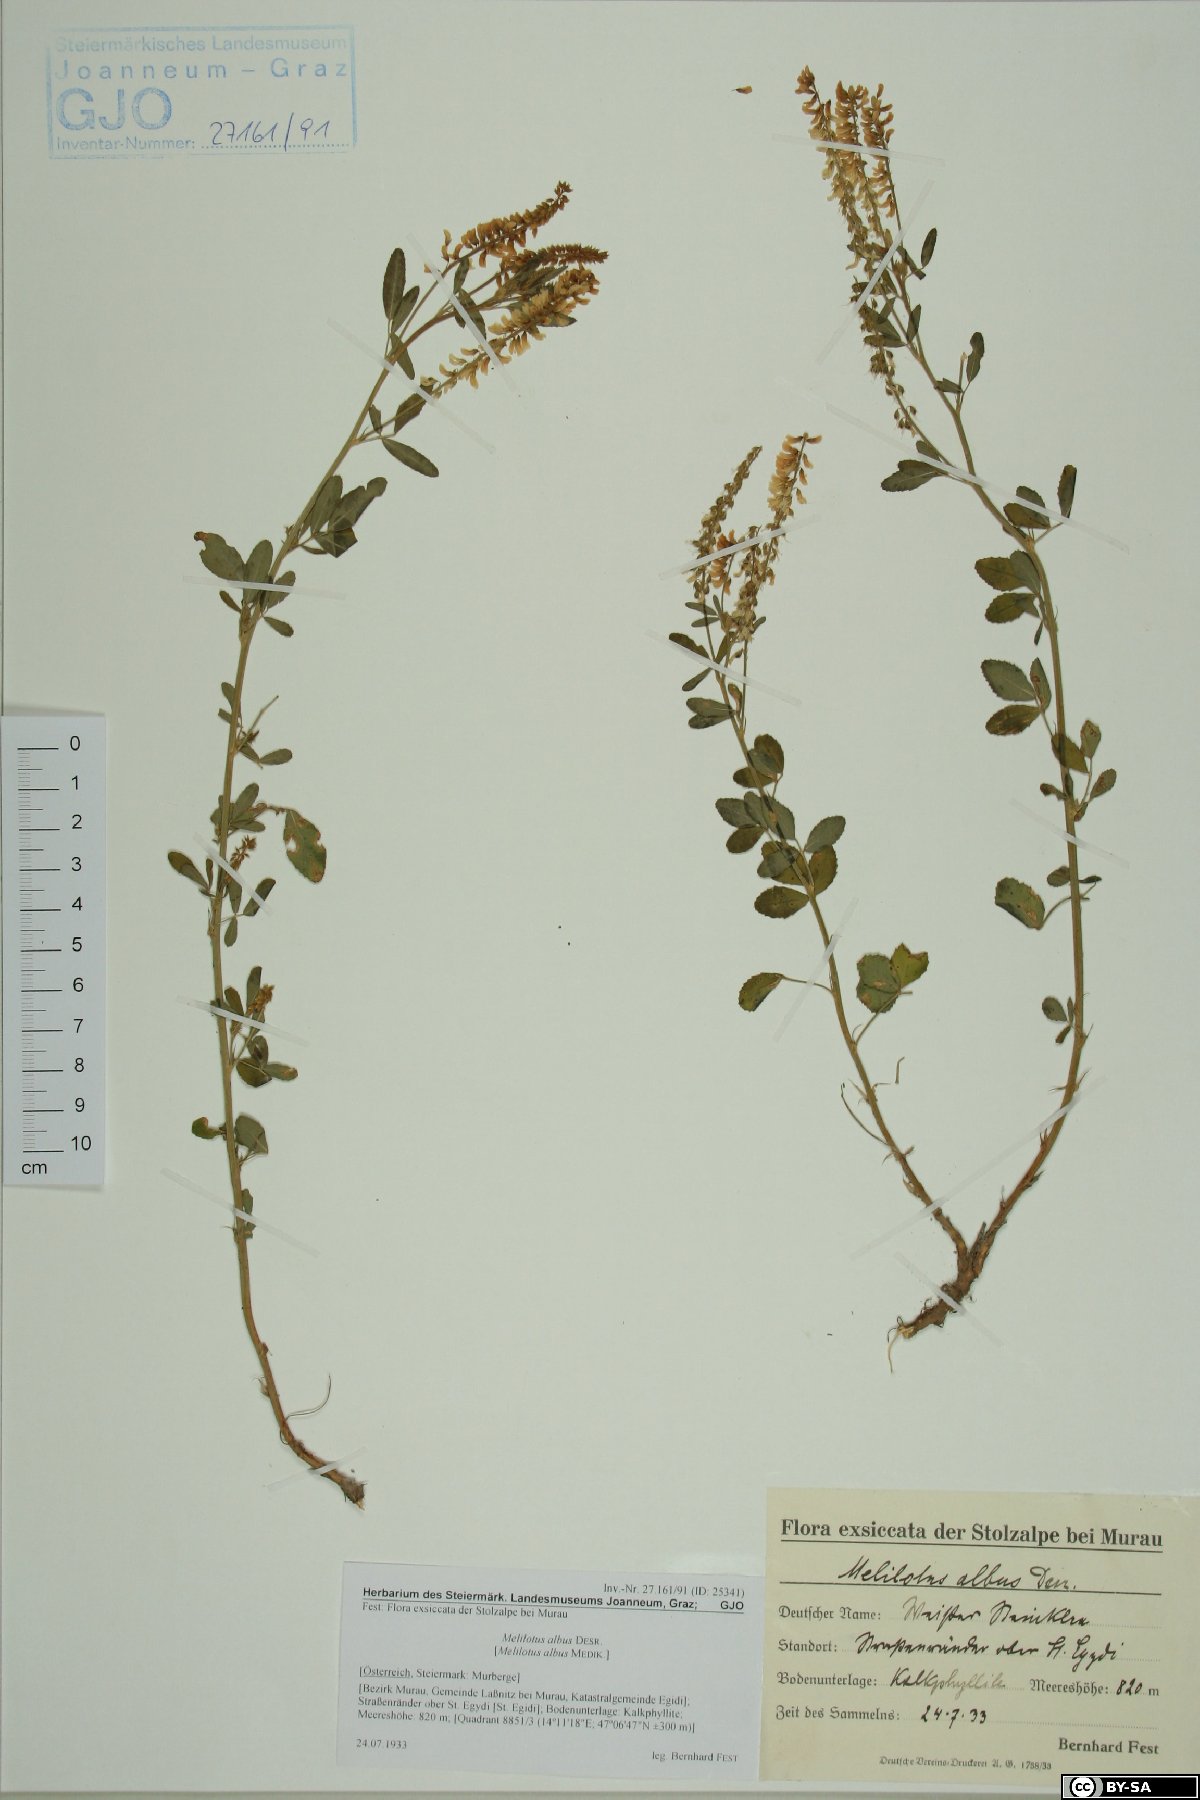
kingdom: Plantae
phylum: Tracheophyta
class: Magnoliopsida
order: Fabales
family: Fabaceae
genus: Melilotus
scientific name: Melilotus albus
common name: White melilot
